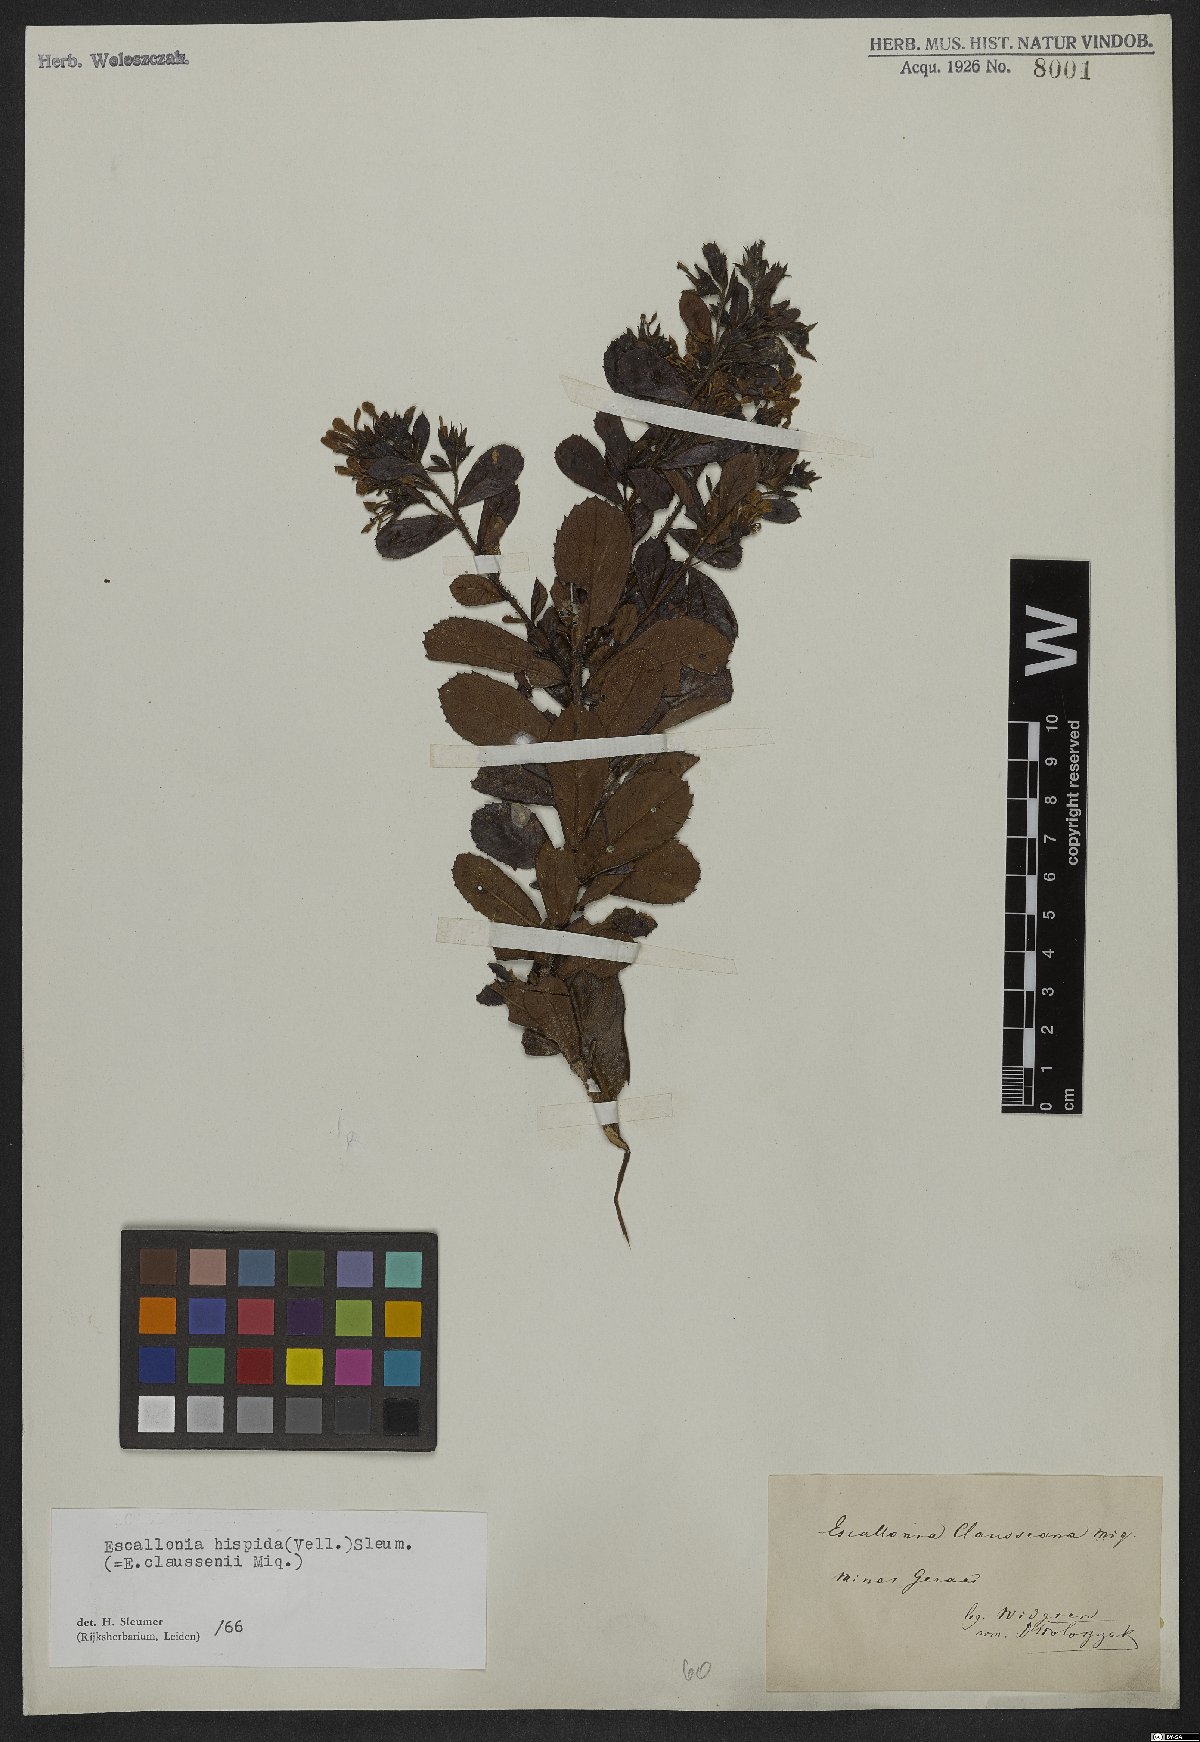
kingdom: Plantae
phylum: Tracheophyta
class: Magnoliopsida
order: Escalloniales
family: Escalloniaceae
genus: Escallonia
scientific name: Escallonia hispida
